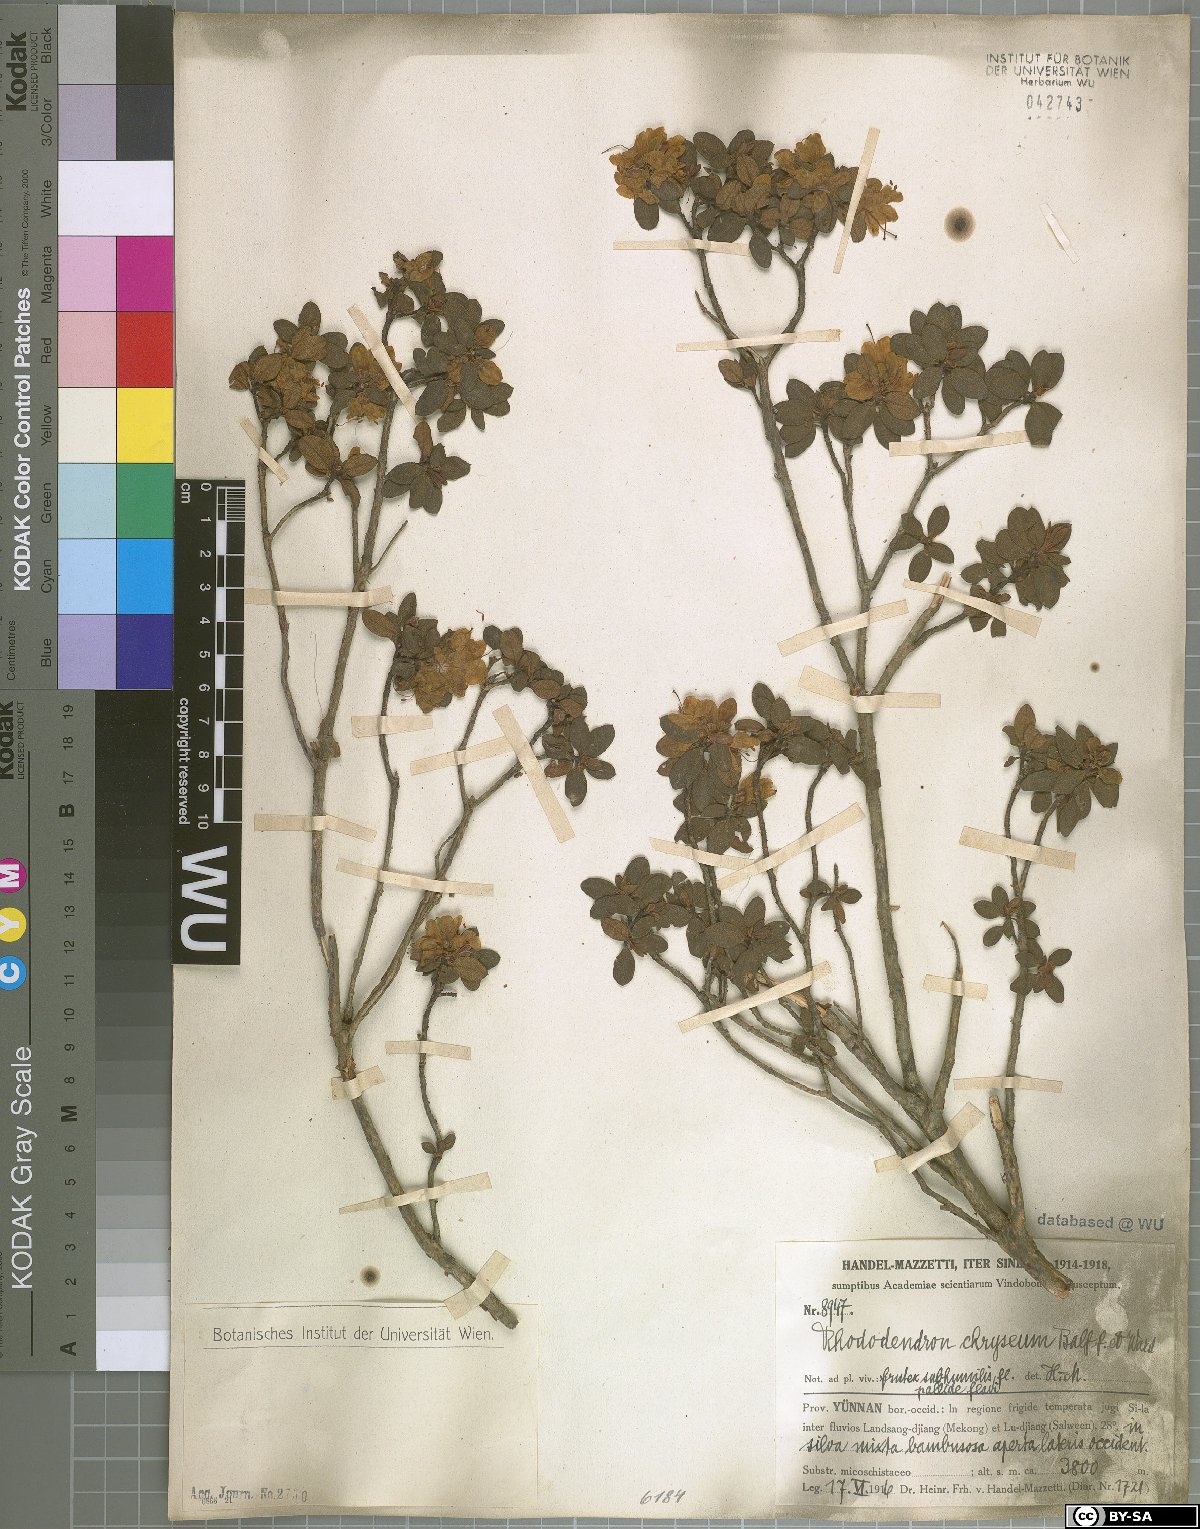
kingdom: Plantae
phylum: Tracheophyta
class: Magnoliopsida
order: Ericales
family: Ericaceae
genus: Rhododendron
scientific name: Rhododendron rupicola
